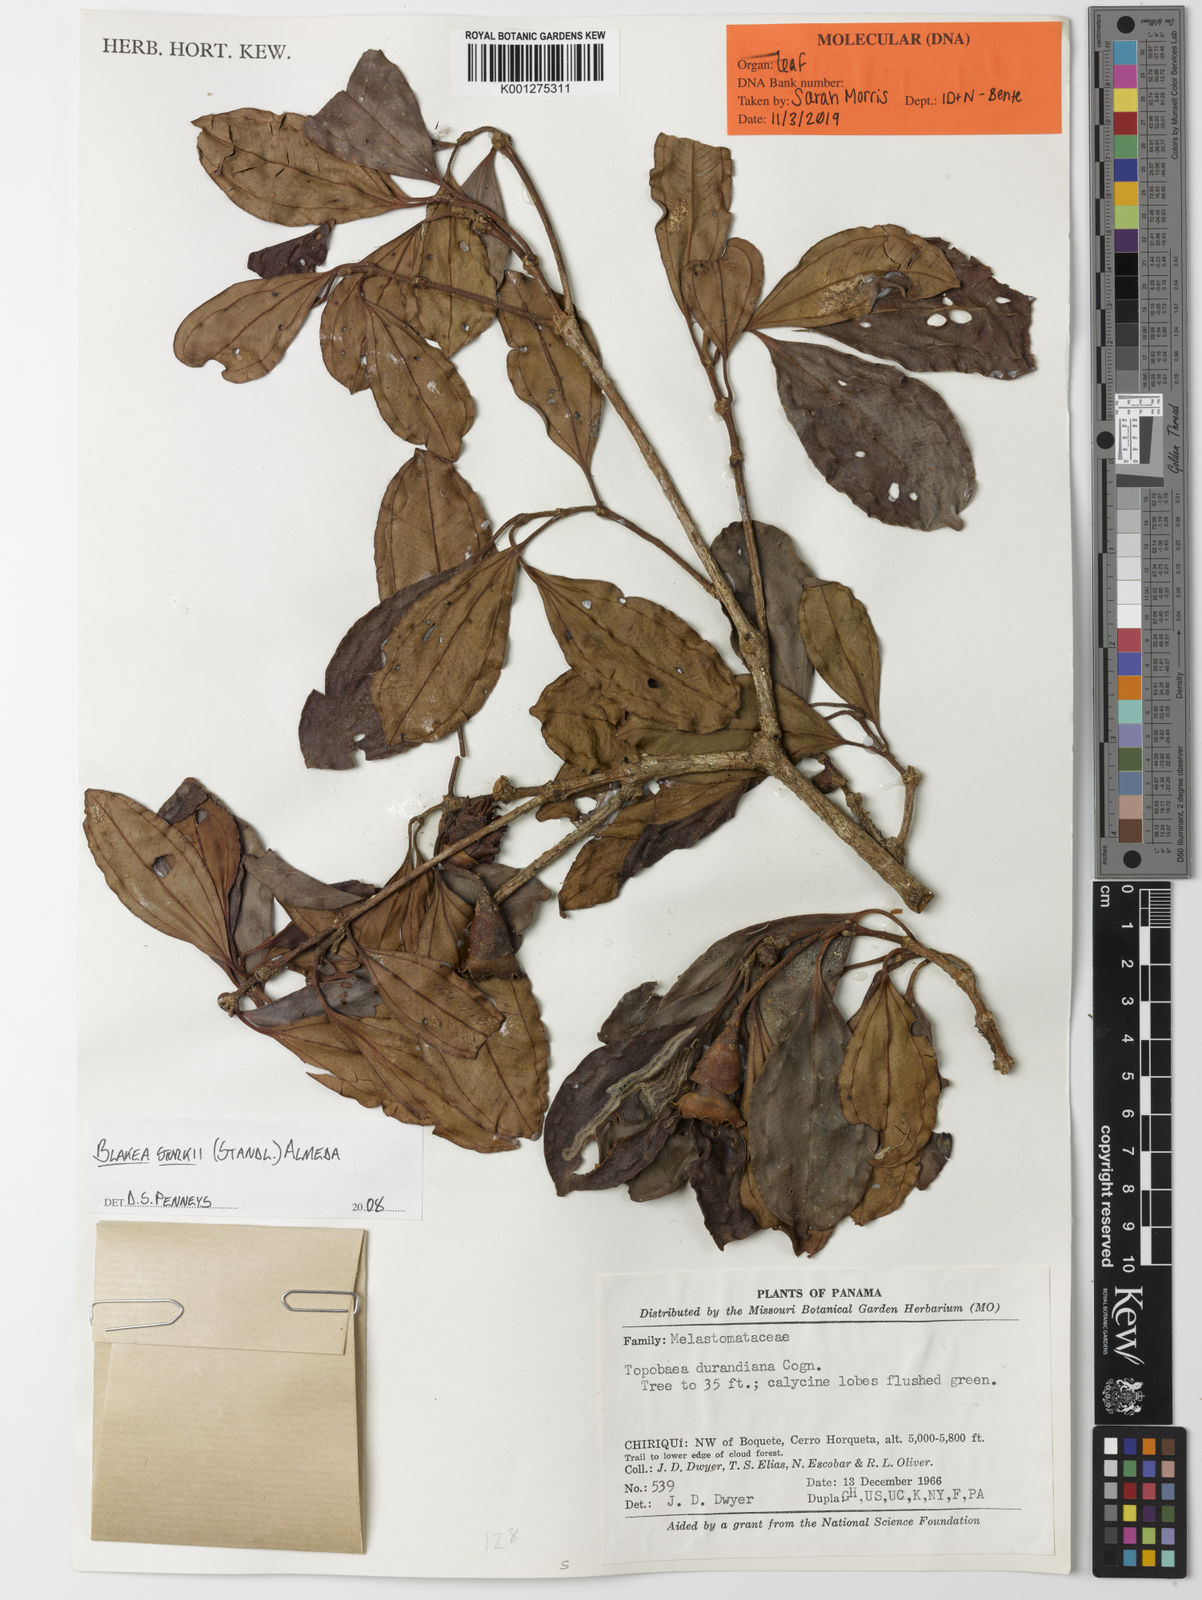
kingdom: Plantae
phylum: Tracheophyta
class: Magnoliopsida
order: Myrtales
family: Melastomataceae
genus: Blakea
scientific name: Blakea storkii
